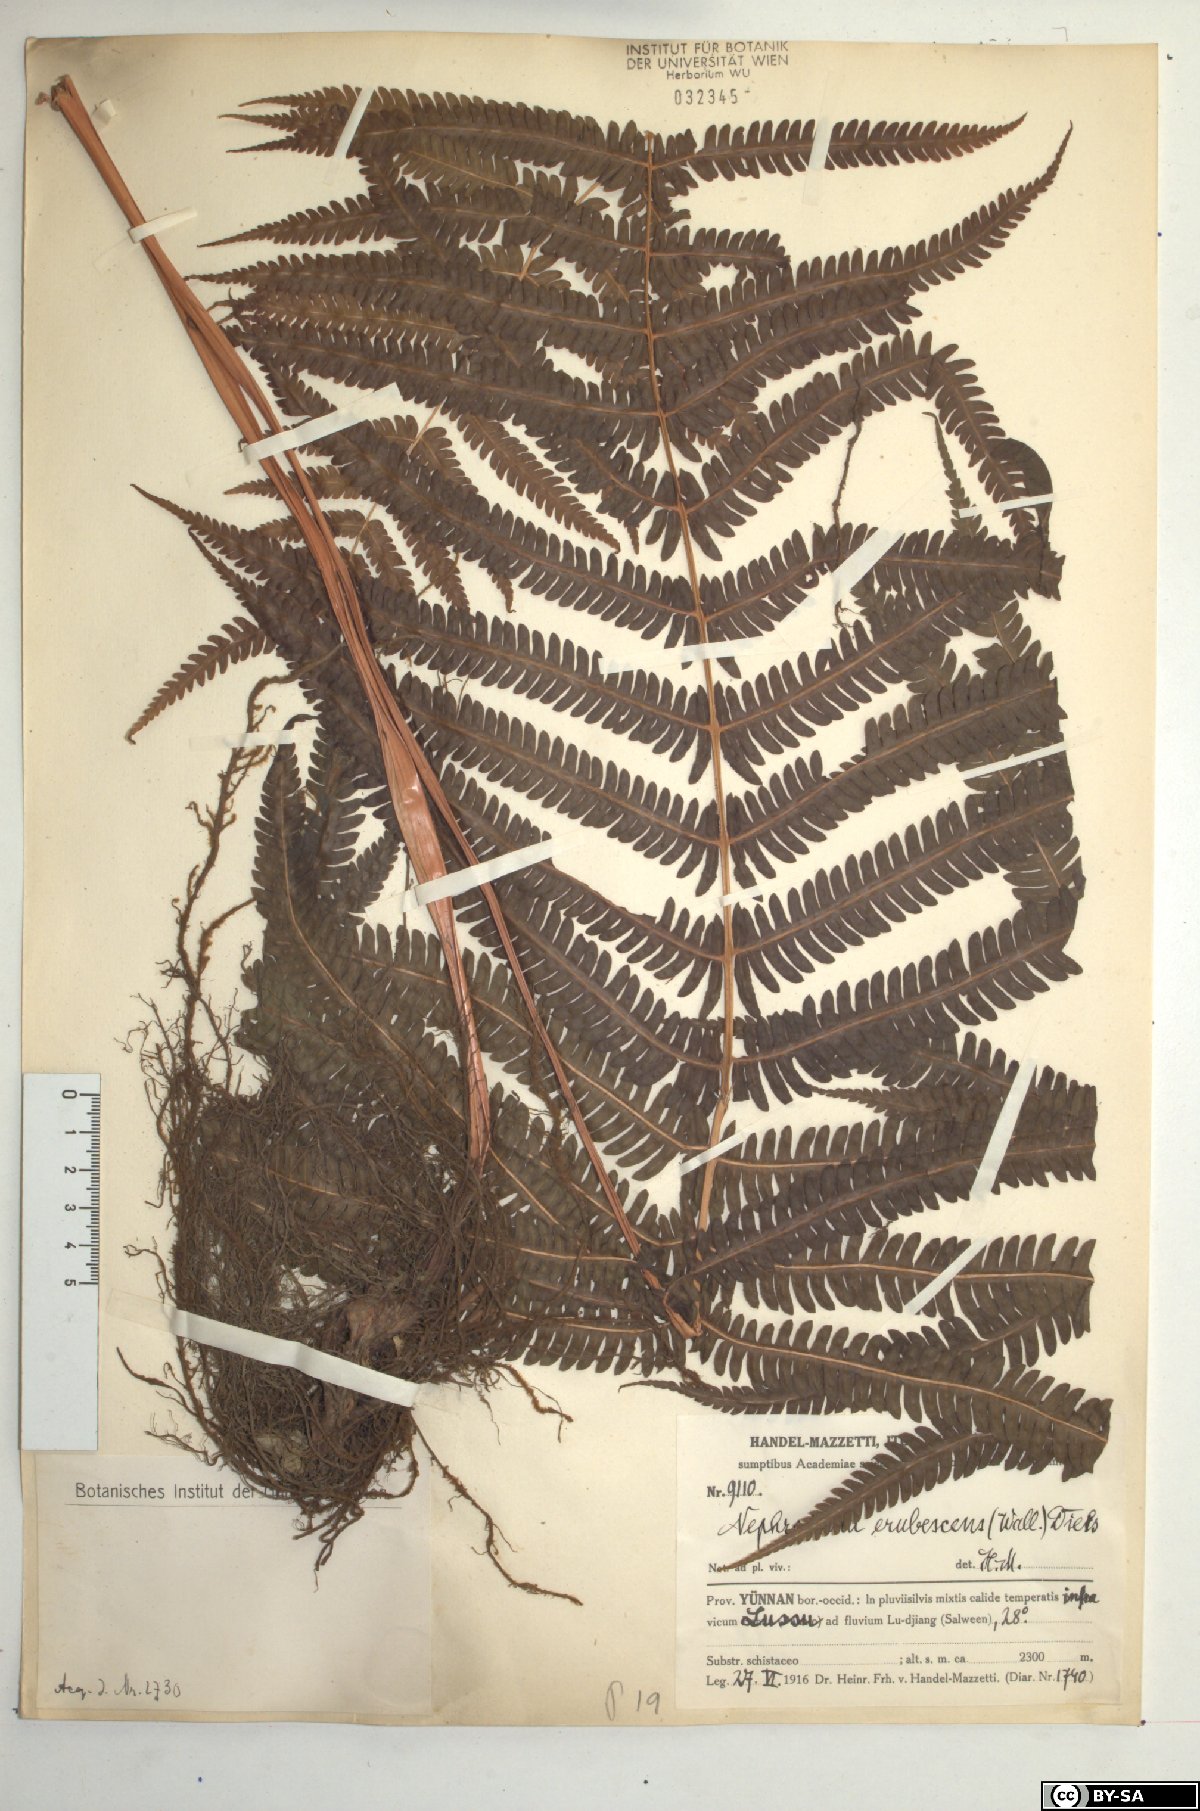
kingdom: Plantae
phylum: Tracheophyta
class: Polypodiopsida
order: Polypodiales
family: Thelypteridaceae
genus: Glaphyropteridopsis
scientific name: Glaphyropteridopsis erubescens
